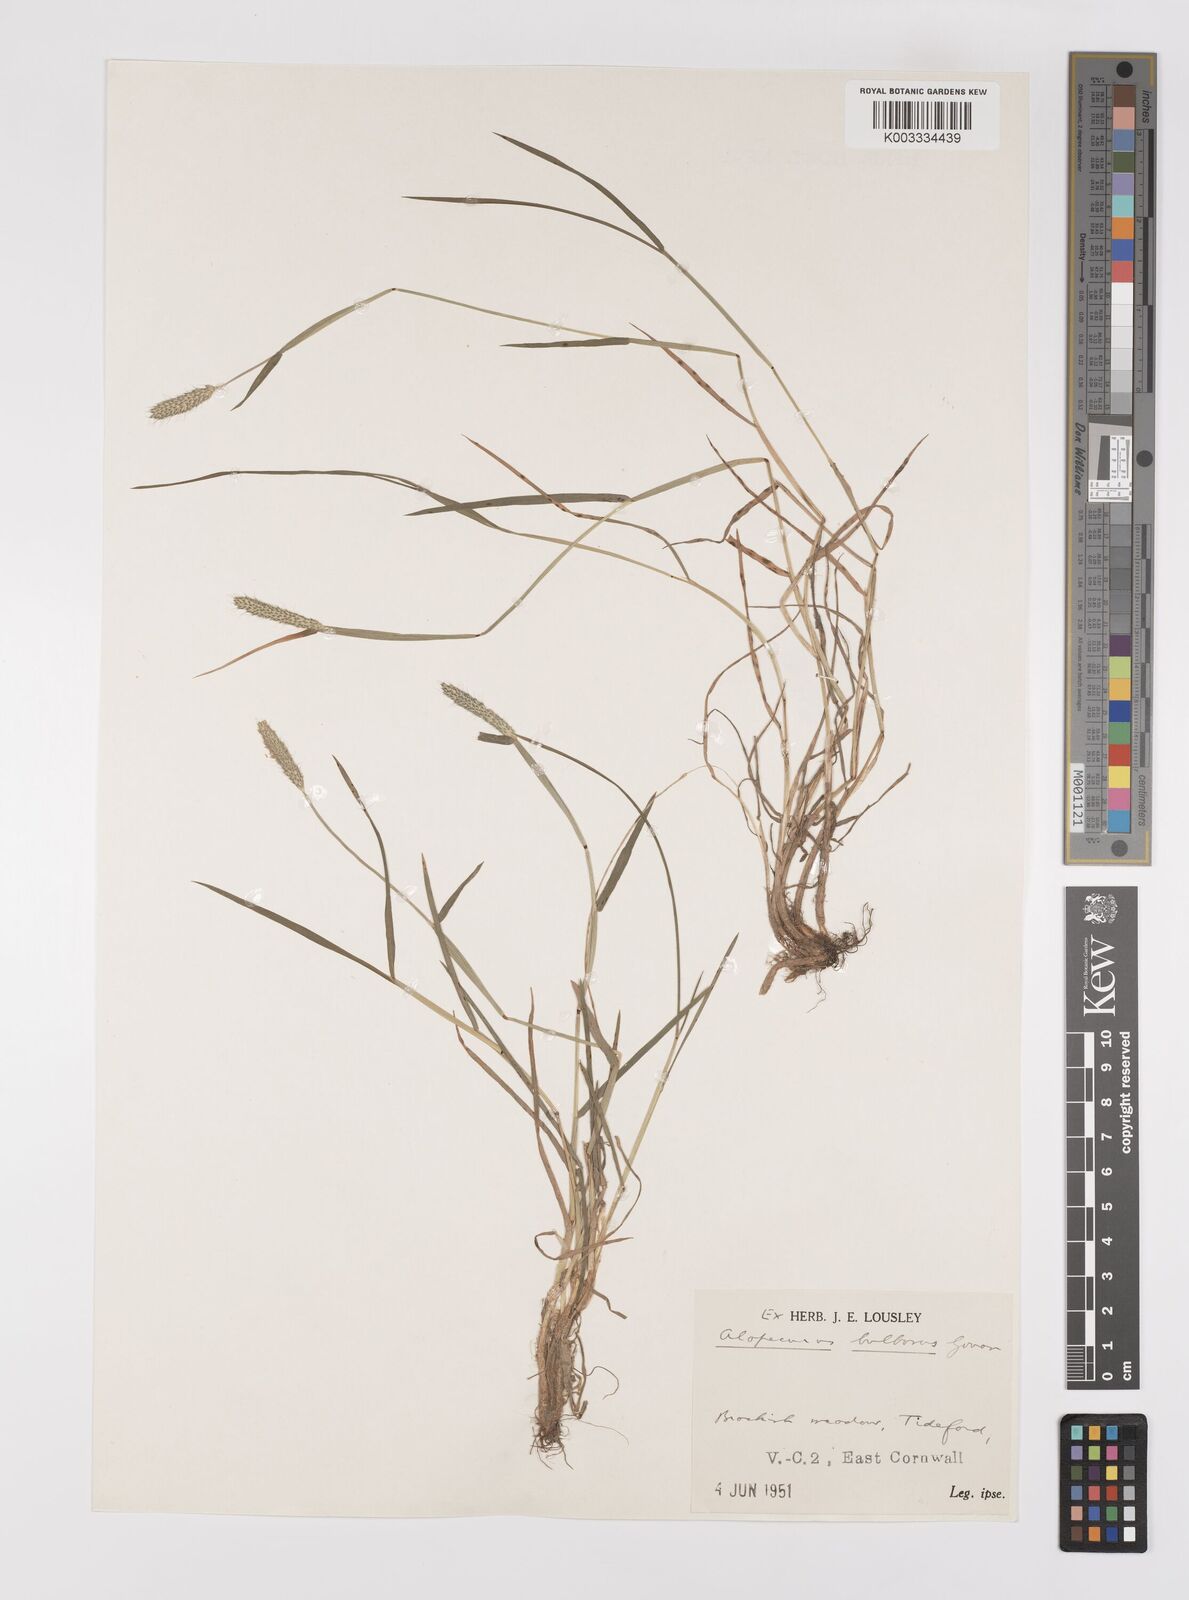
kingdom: Plantae
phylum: Tracheophyta
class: Liliopsida
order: Poales
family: Poaceae
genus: Alopecurus
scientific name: Alopecurus bulbosus
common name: Bulbous foxtail
